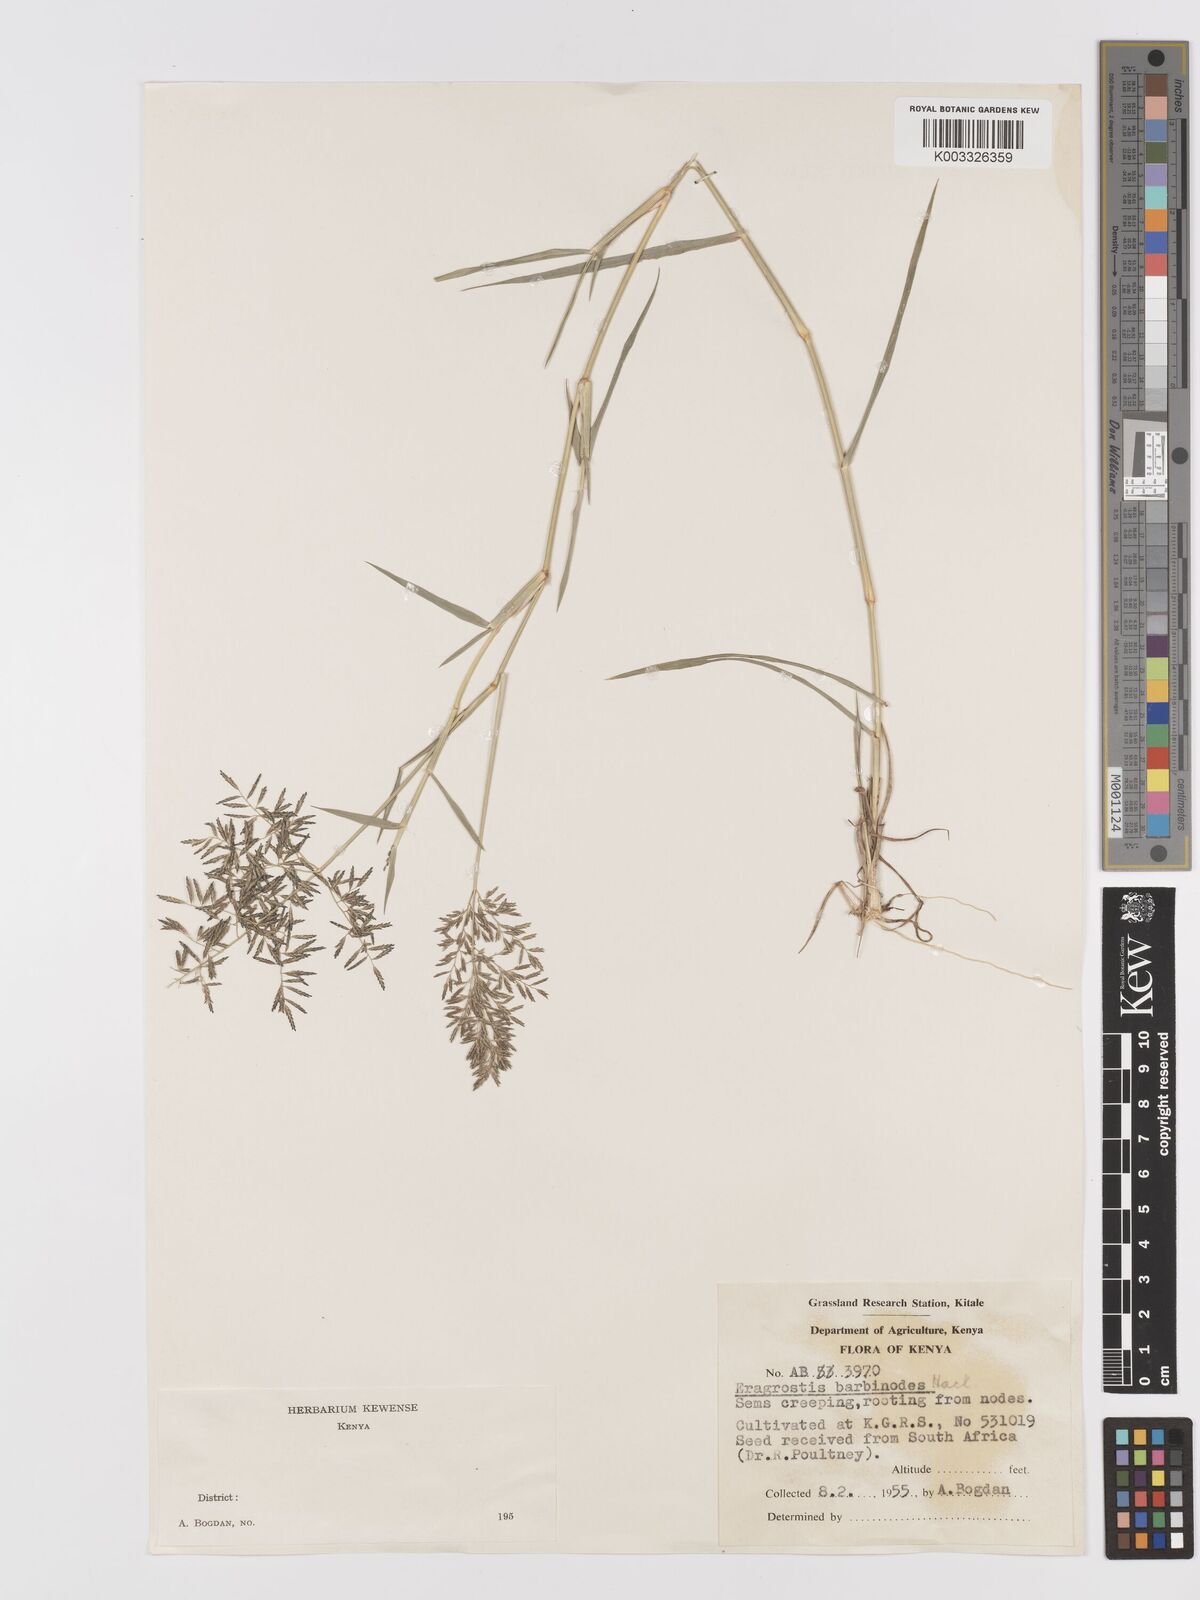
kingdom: Plantae
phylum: Tracheophyta
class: Liliopsida
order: Poales
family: Poaceae
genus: Eragrostis
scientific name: Eragrostis barbinodis
